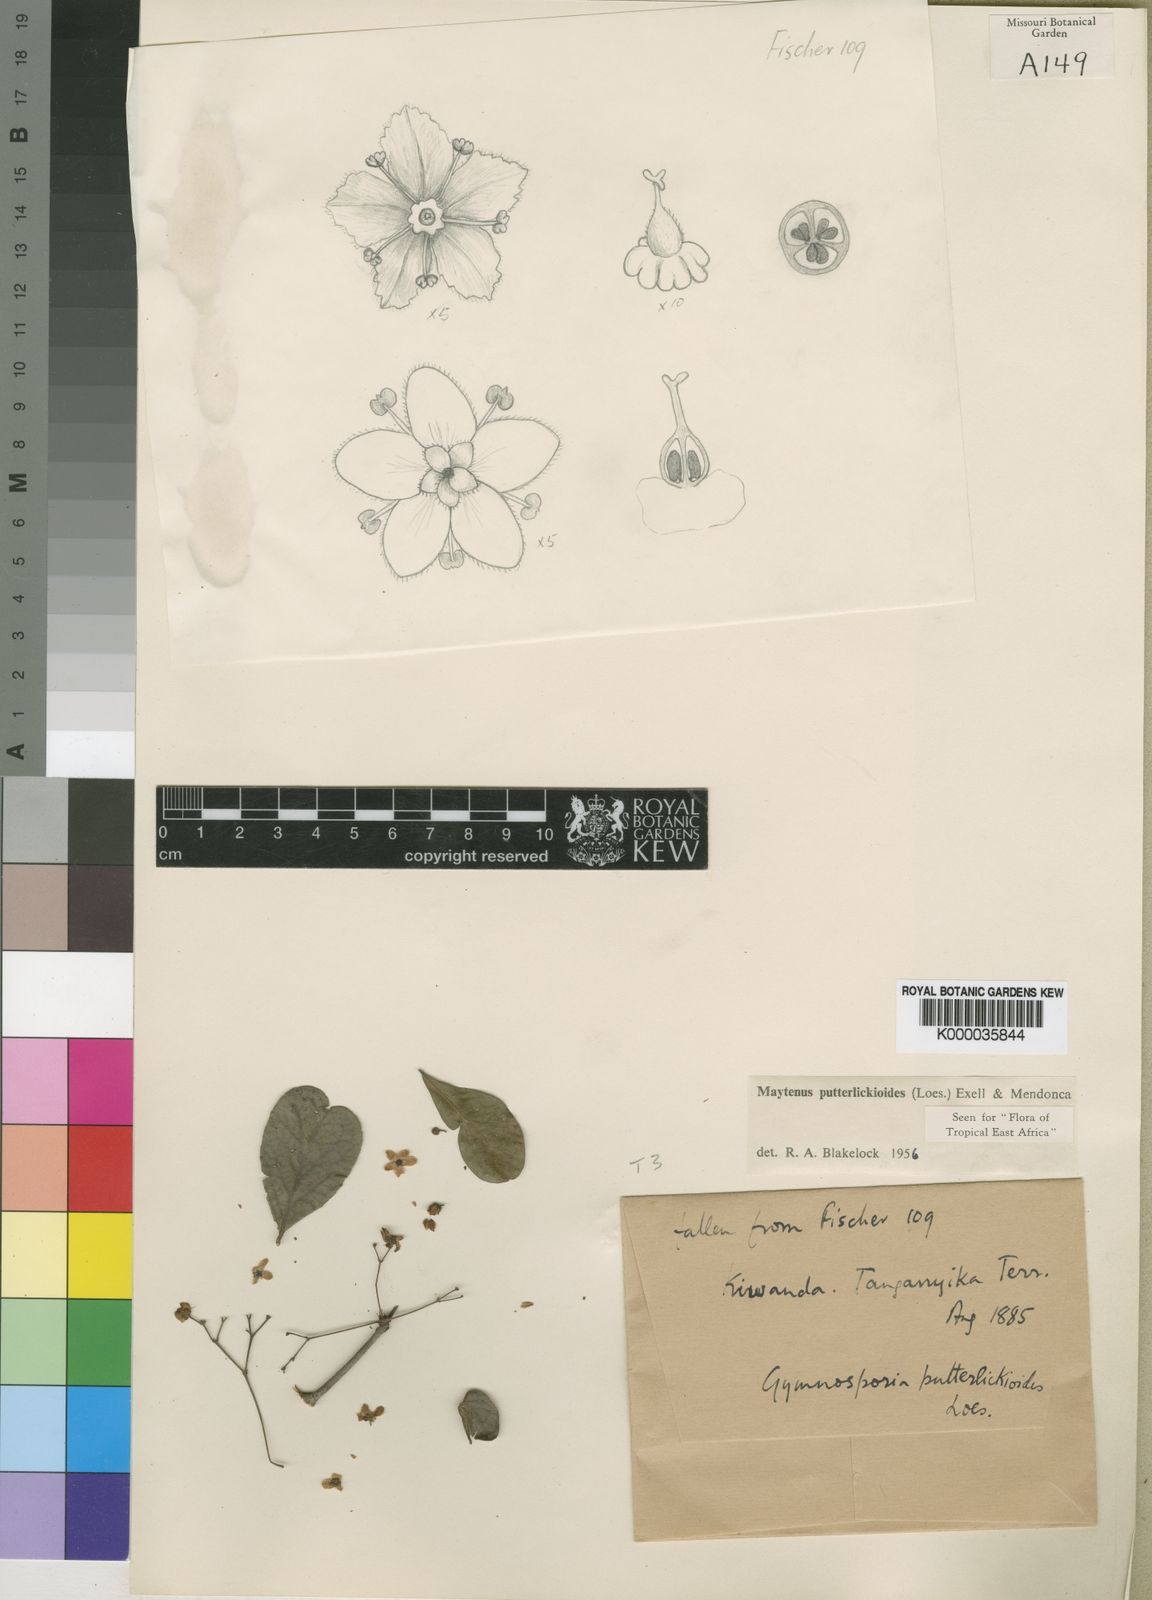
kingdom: Plantae
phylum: Tracheophyta
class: Magnoliopsida
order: Celastrales
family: Celastraceae
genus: Gymnosporia
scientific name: Gymnosporia putterlickioides
